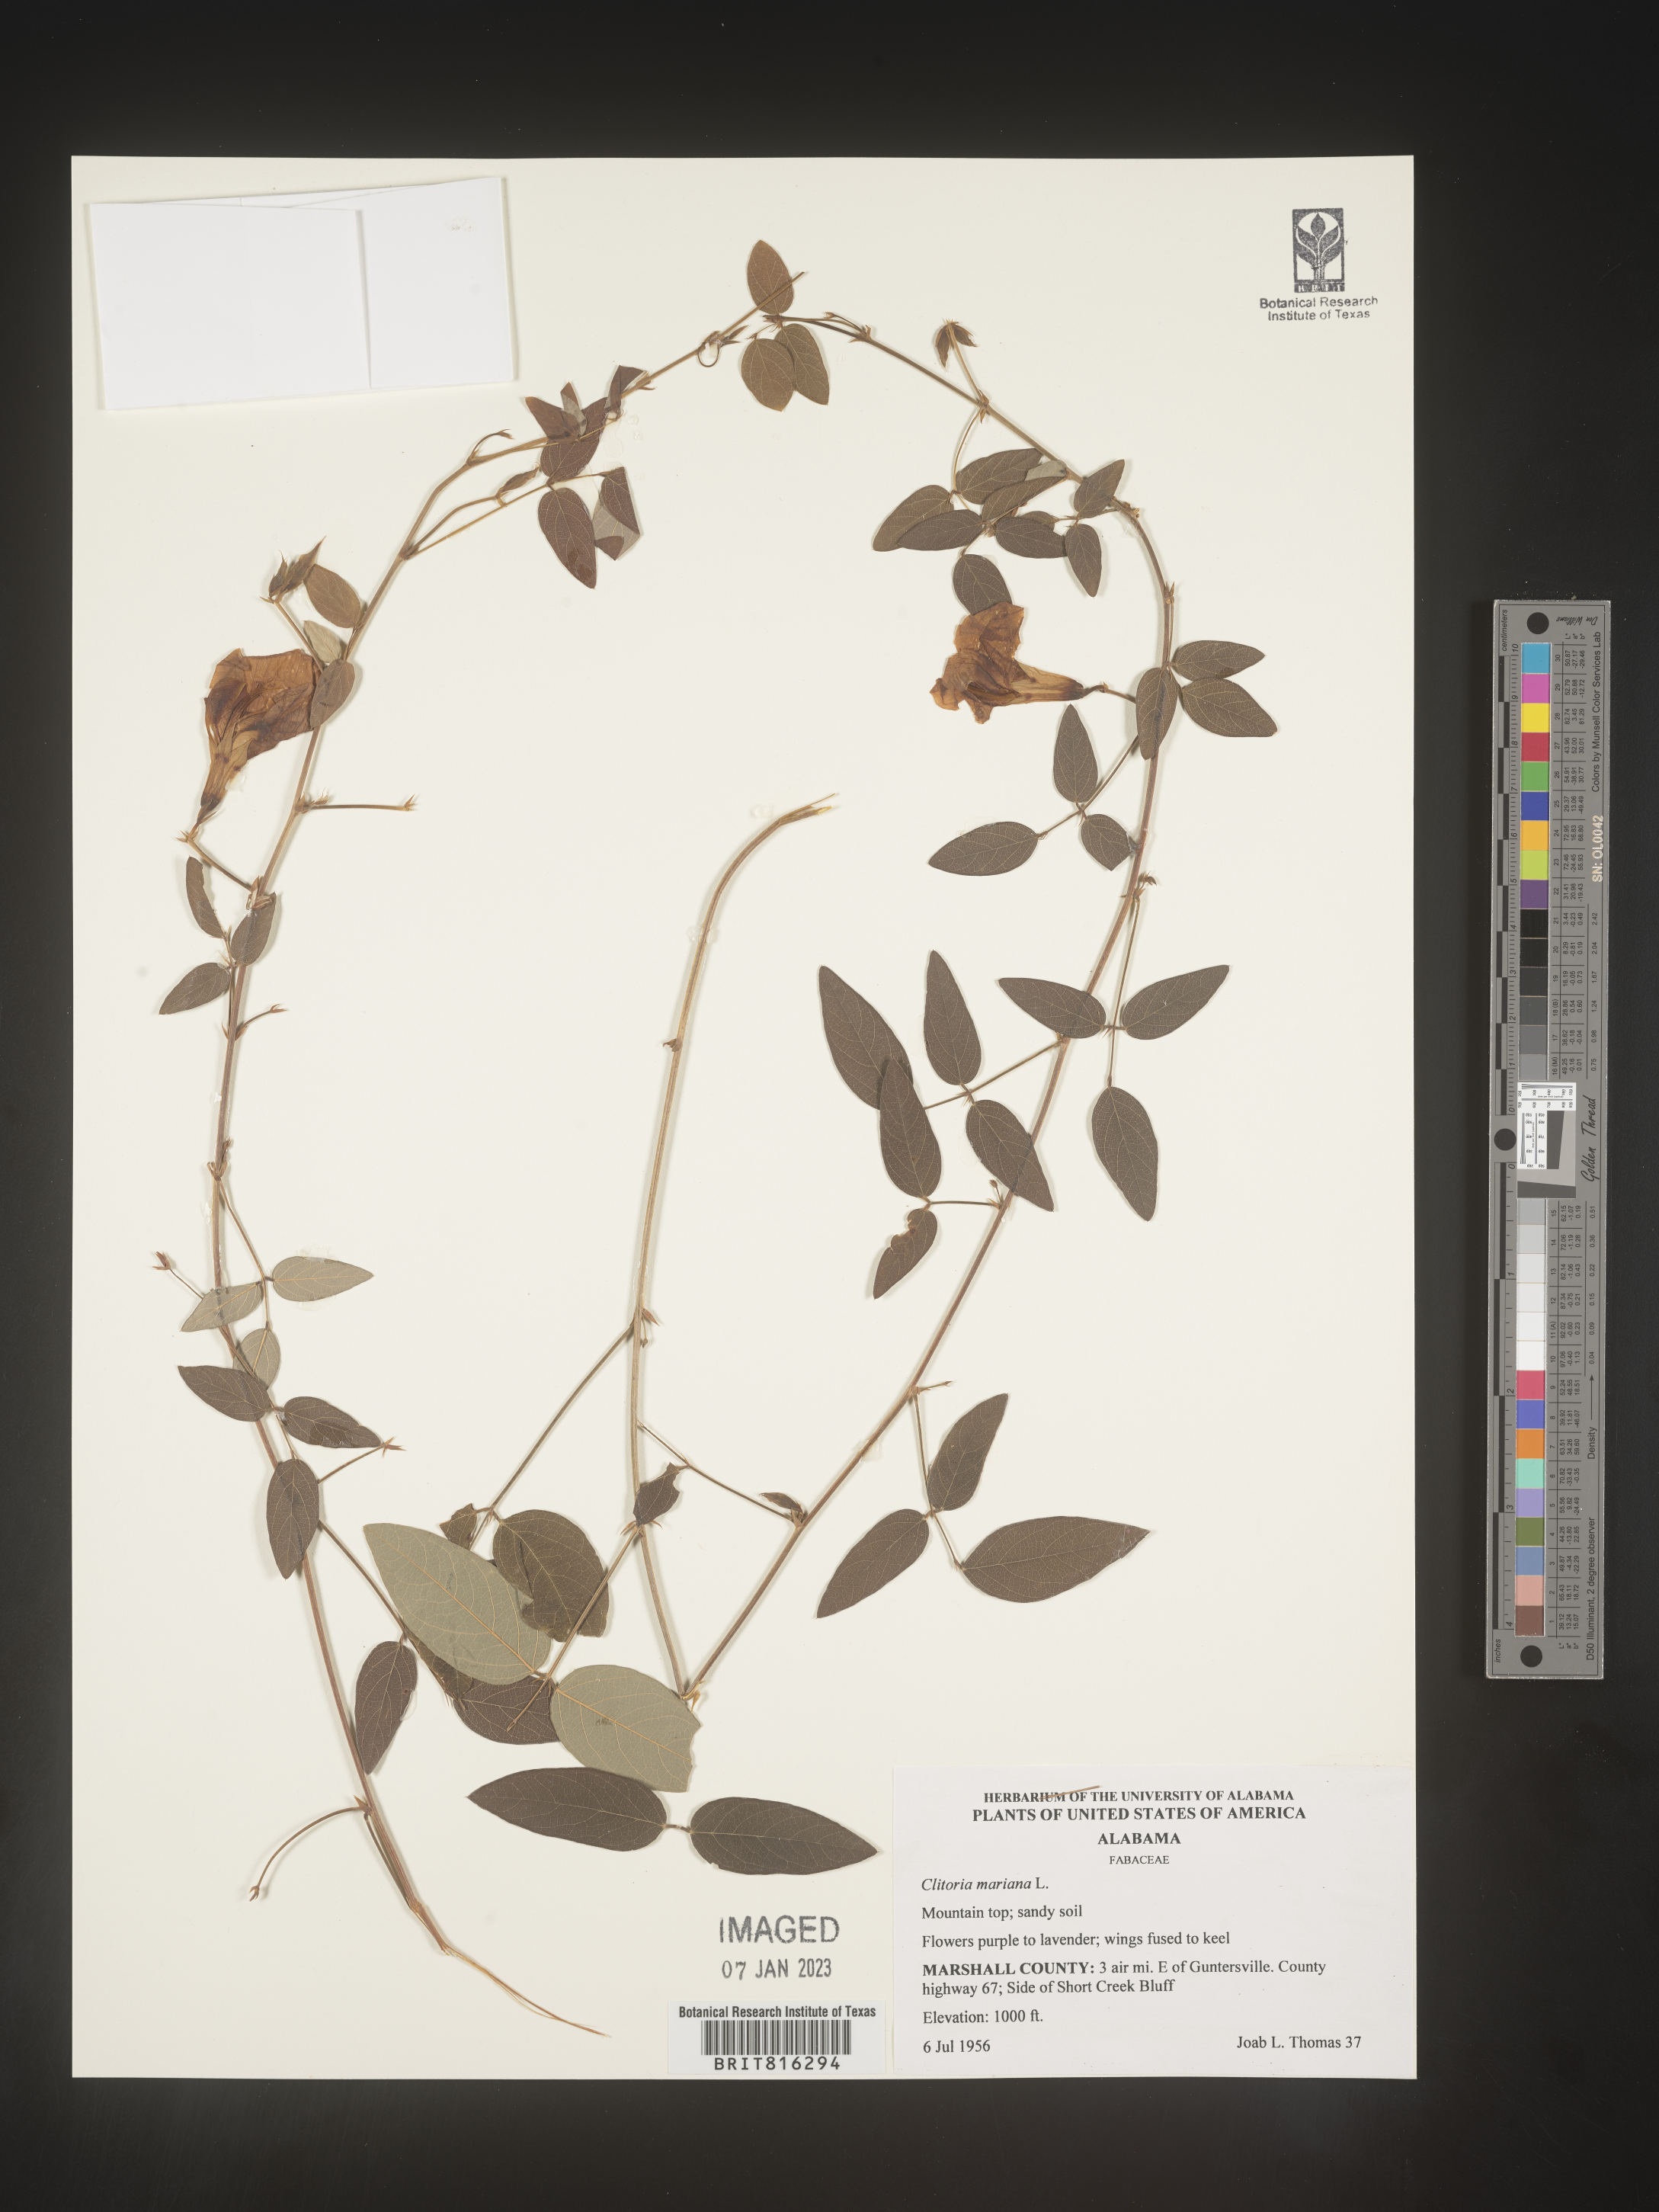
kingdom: Plantae
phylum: Tracheophyta
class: Magnoliopsida
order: Fabales
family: Fabaceae
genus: Clitoria
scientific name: Clitoria mariana
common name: Butterfly-pea
